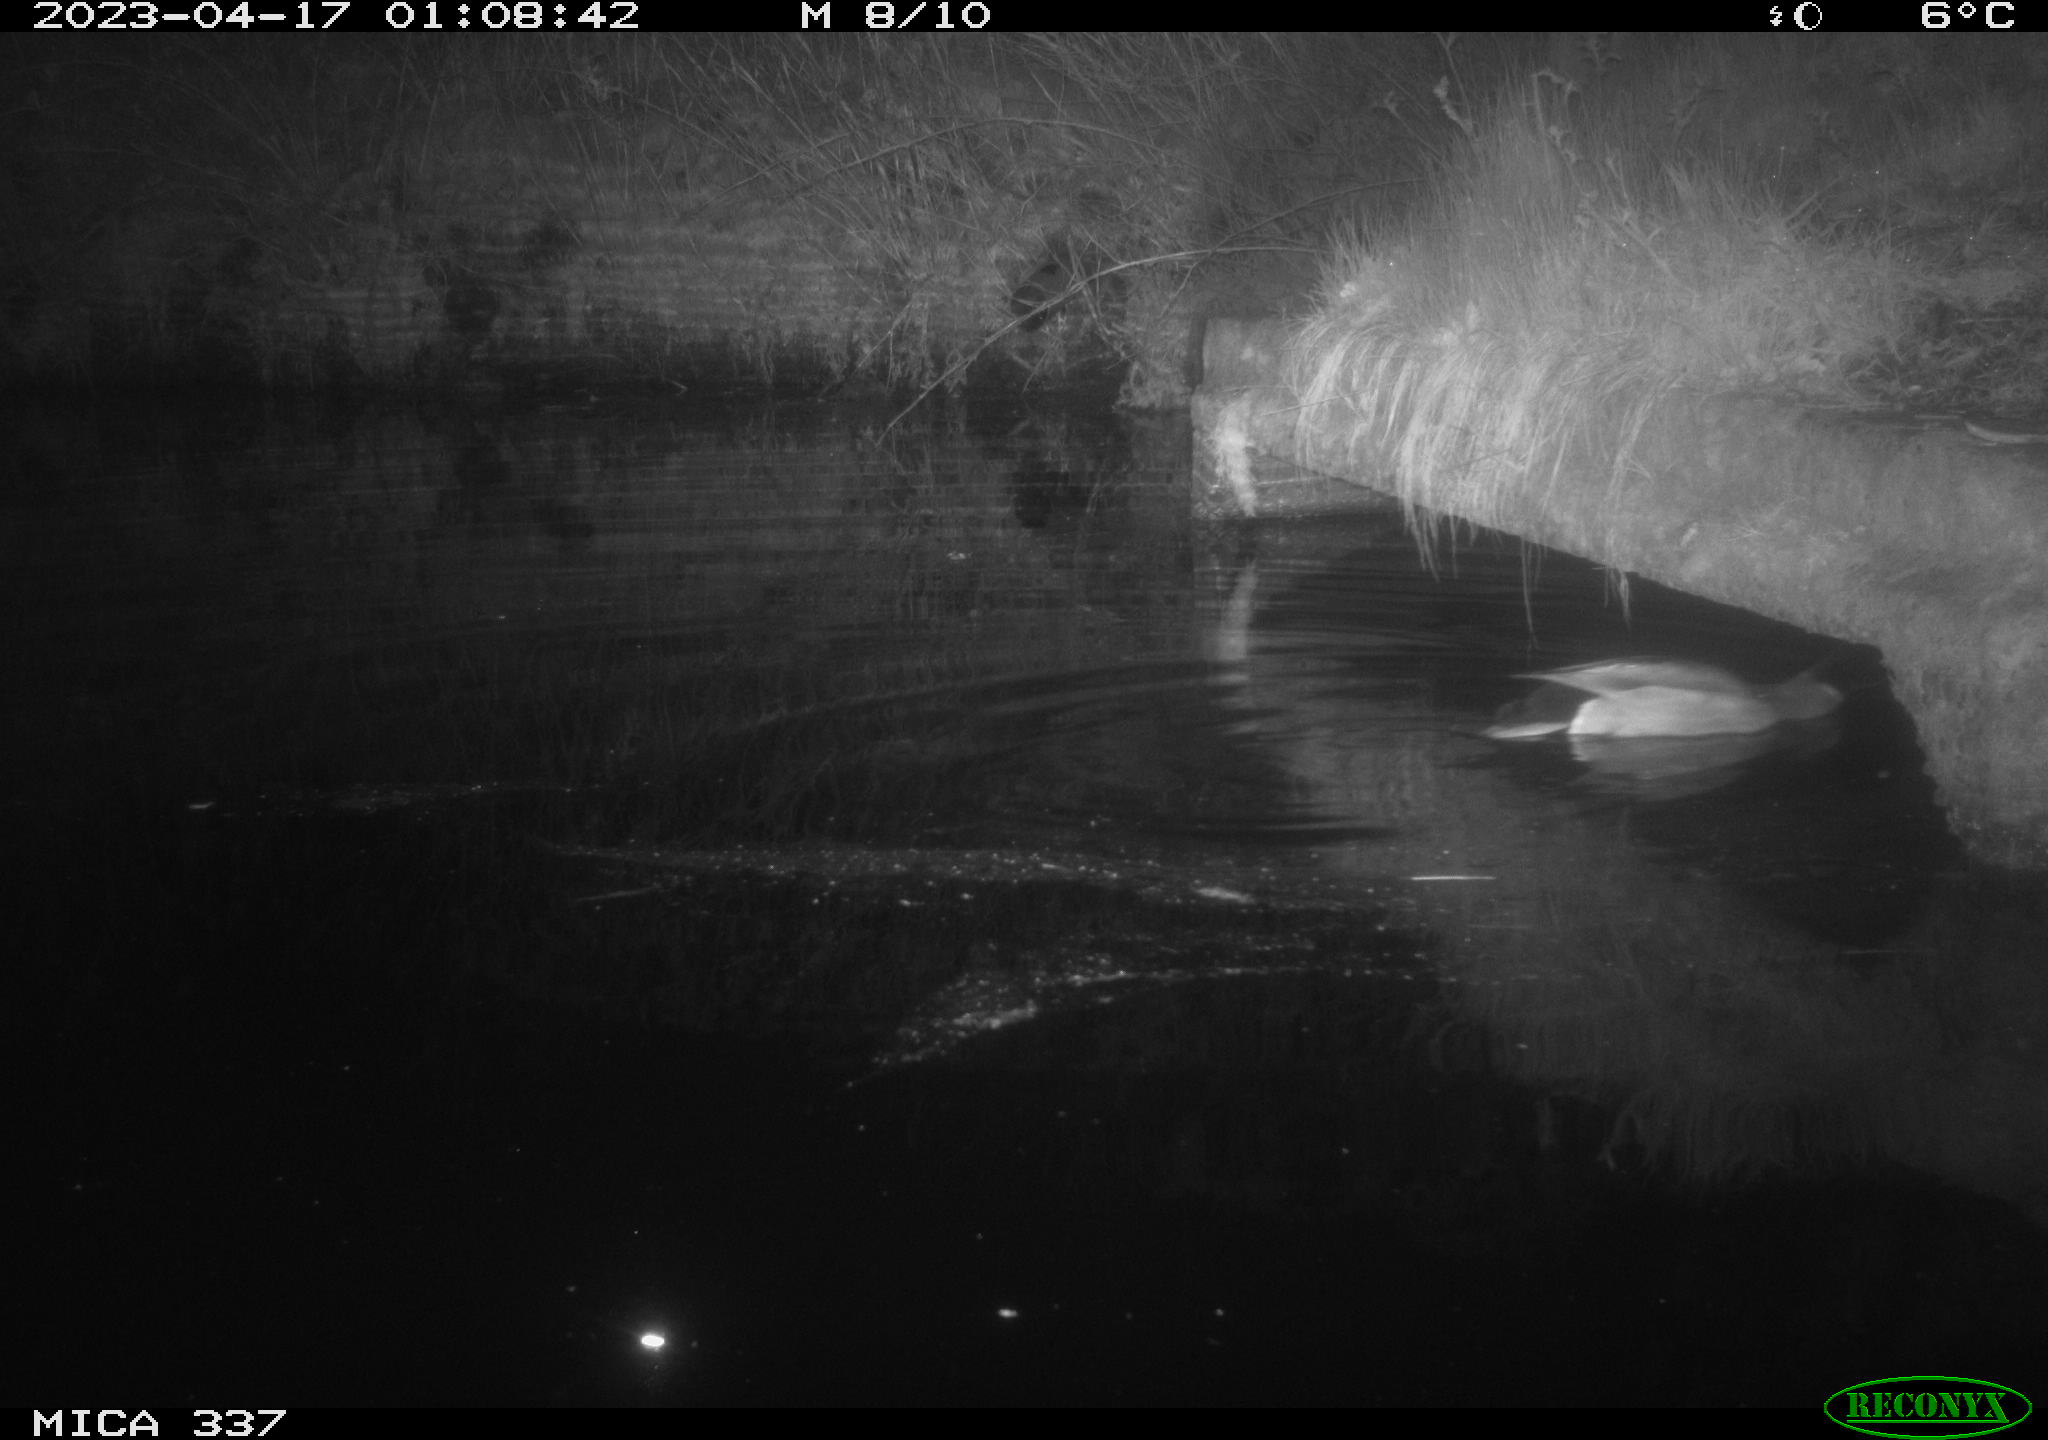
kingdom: Animalia
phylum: Chordata
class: Aves
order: Anseriformes
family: Anatidae
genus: Anas
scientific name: Anas platyrhynchos
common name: Mallard
